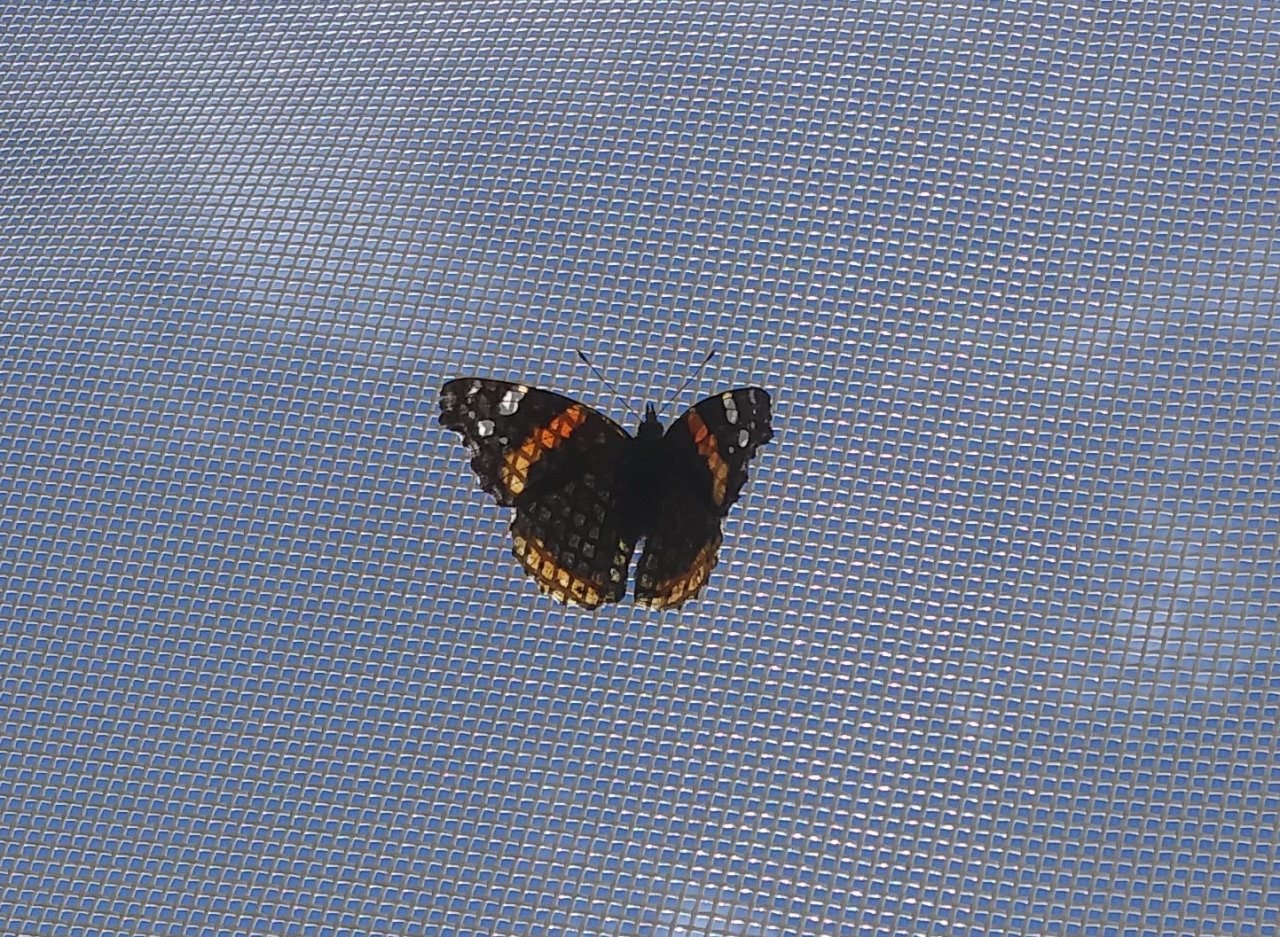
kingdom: Animalia
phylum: Arthropoda
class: Insecta
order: Lepidoptera
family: Nymphalidae
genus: Vanessa
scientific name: Vanessa atalanta
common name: Red Admiral
